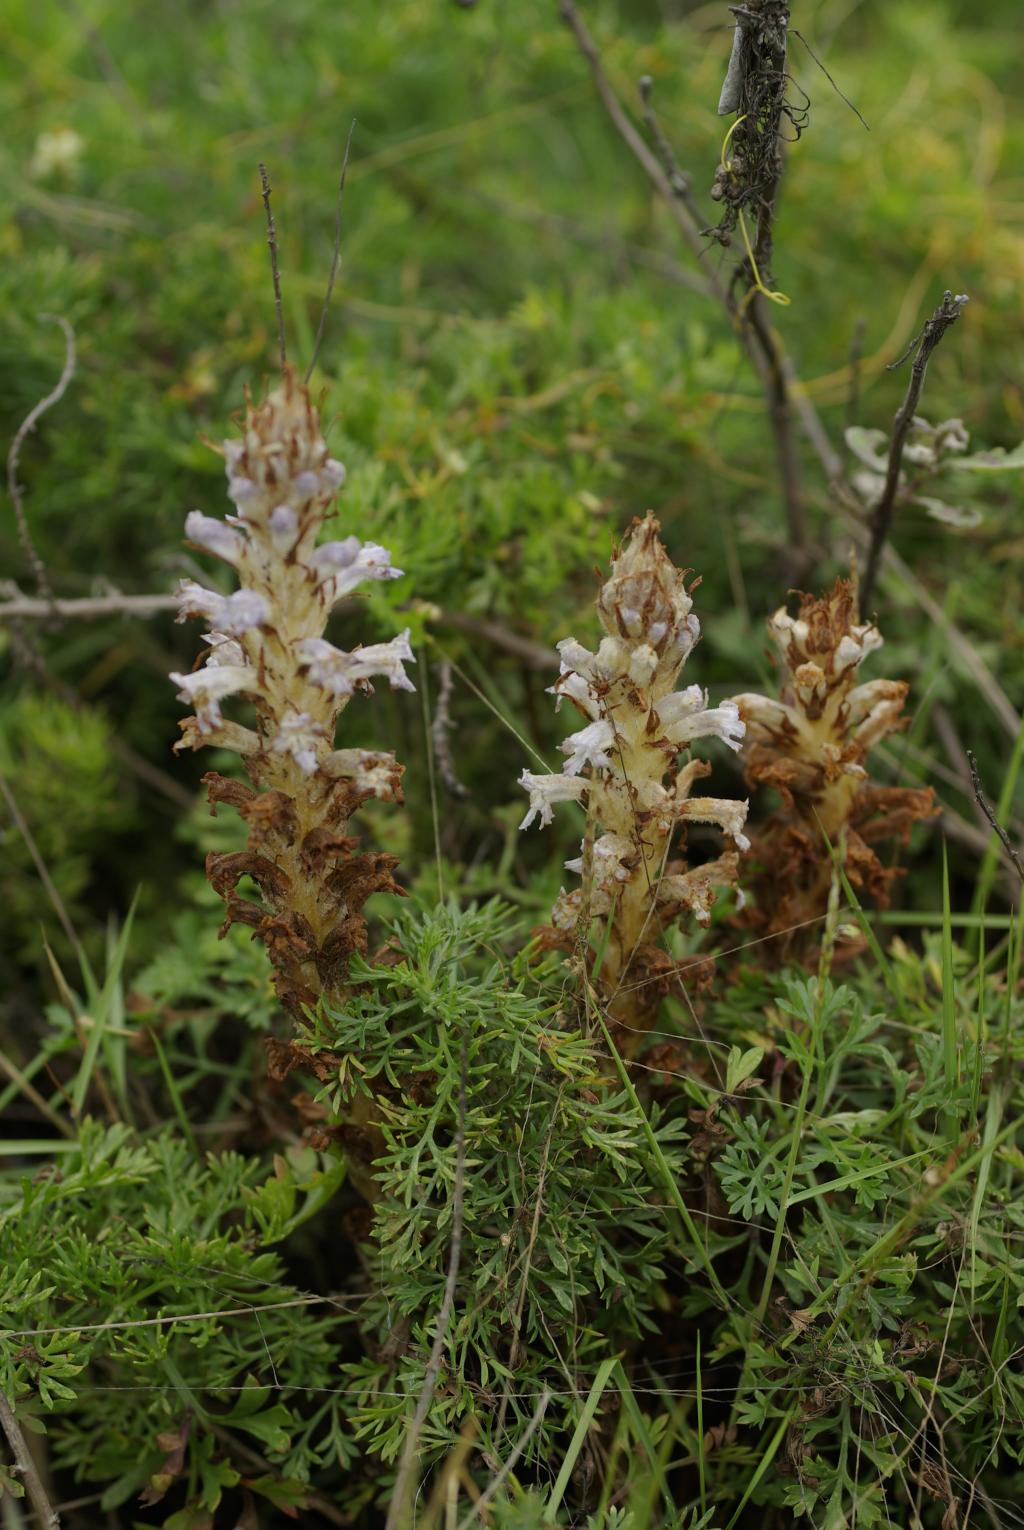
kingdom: Plantae
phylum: Tracheophyta
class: Magnoliopsida
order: Lamiales
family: Orobanchaceae
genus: Orobanche
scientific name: Orobanche coerulescens
